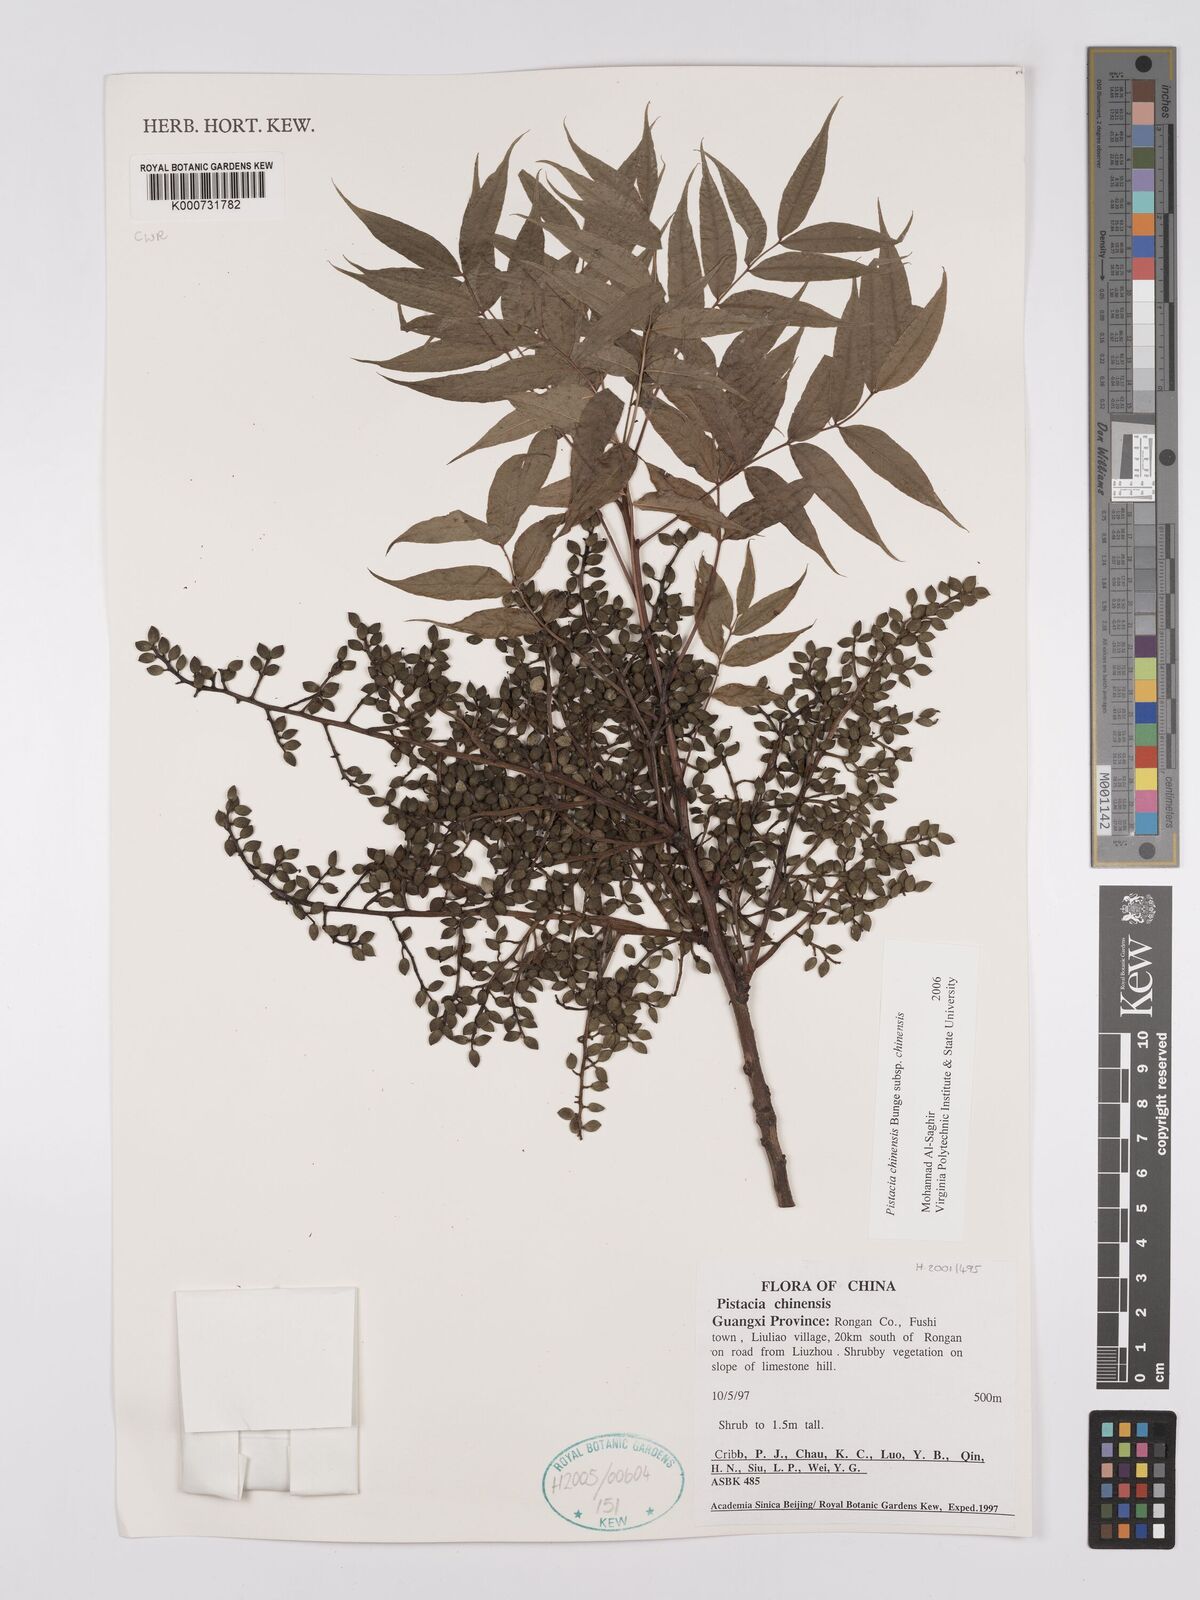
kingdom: Plantae
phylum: Tracheophyta
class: Magnoliopsida
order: Sapindales
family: Anacardiaceae
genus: Pistacia
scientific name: Pistacia chinensis
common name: Chinese pistache
